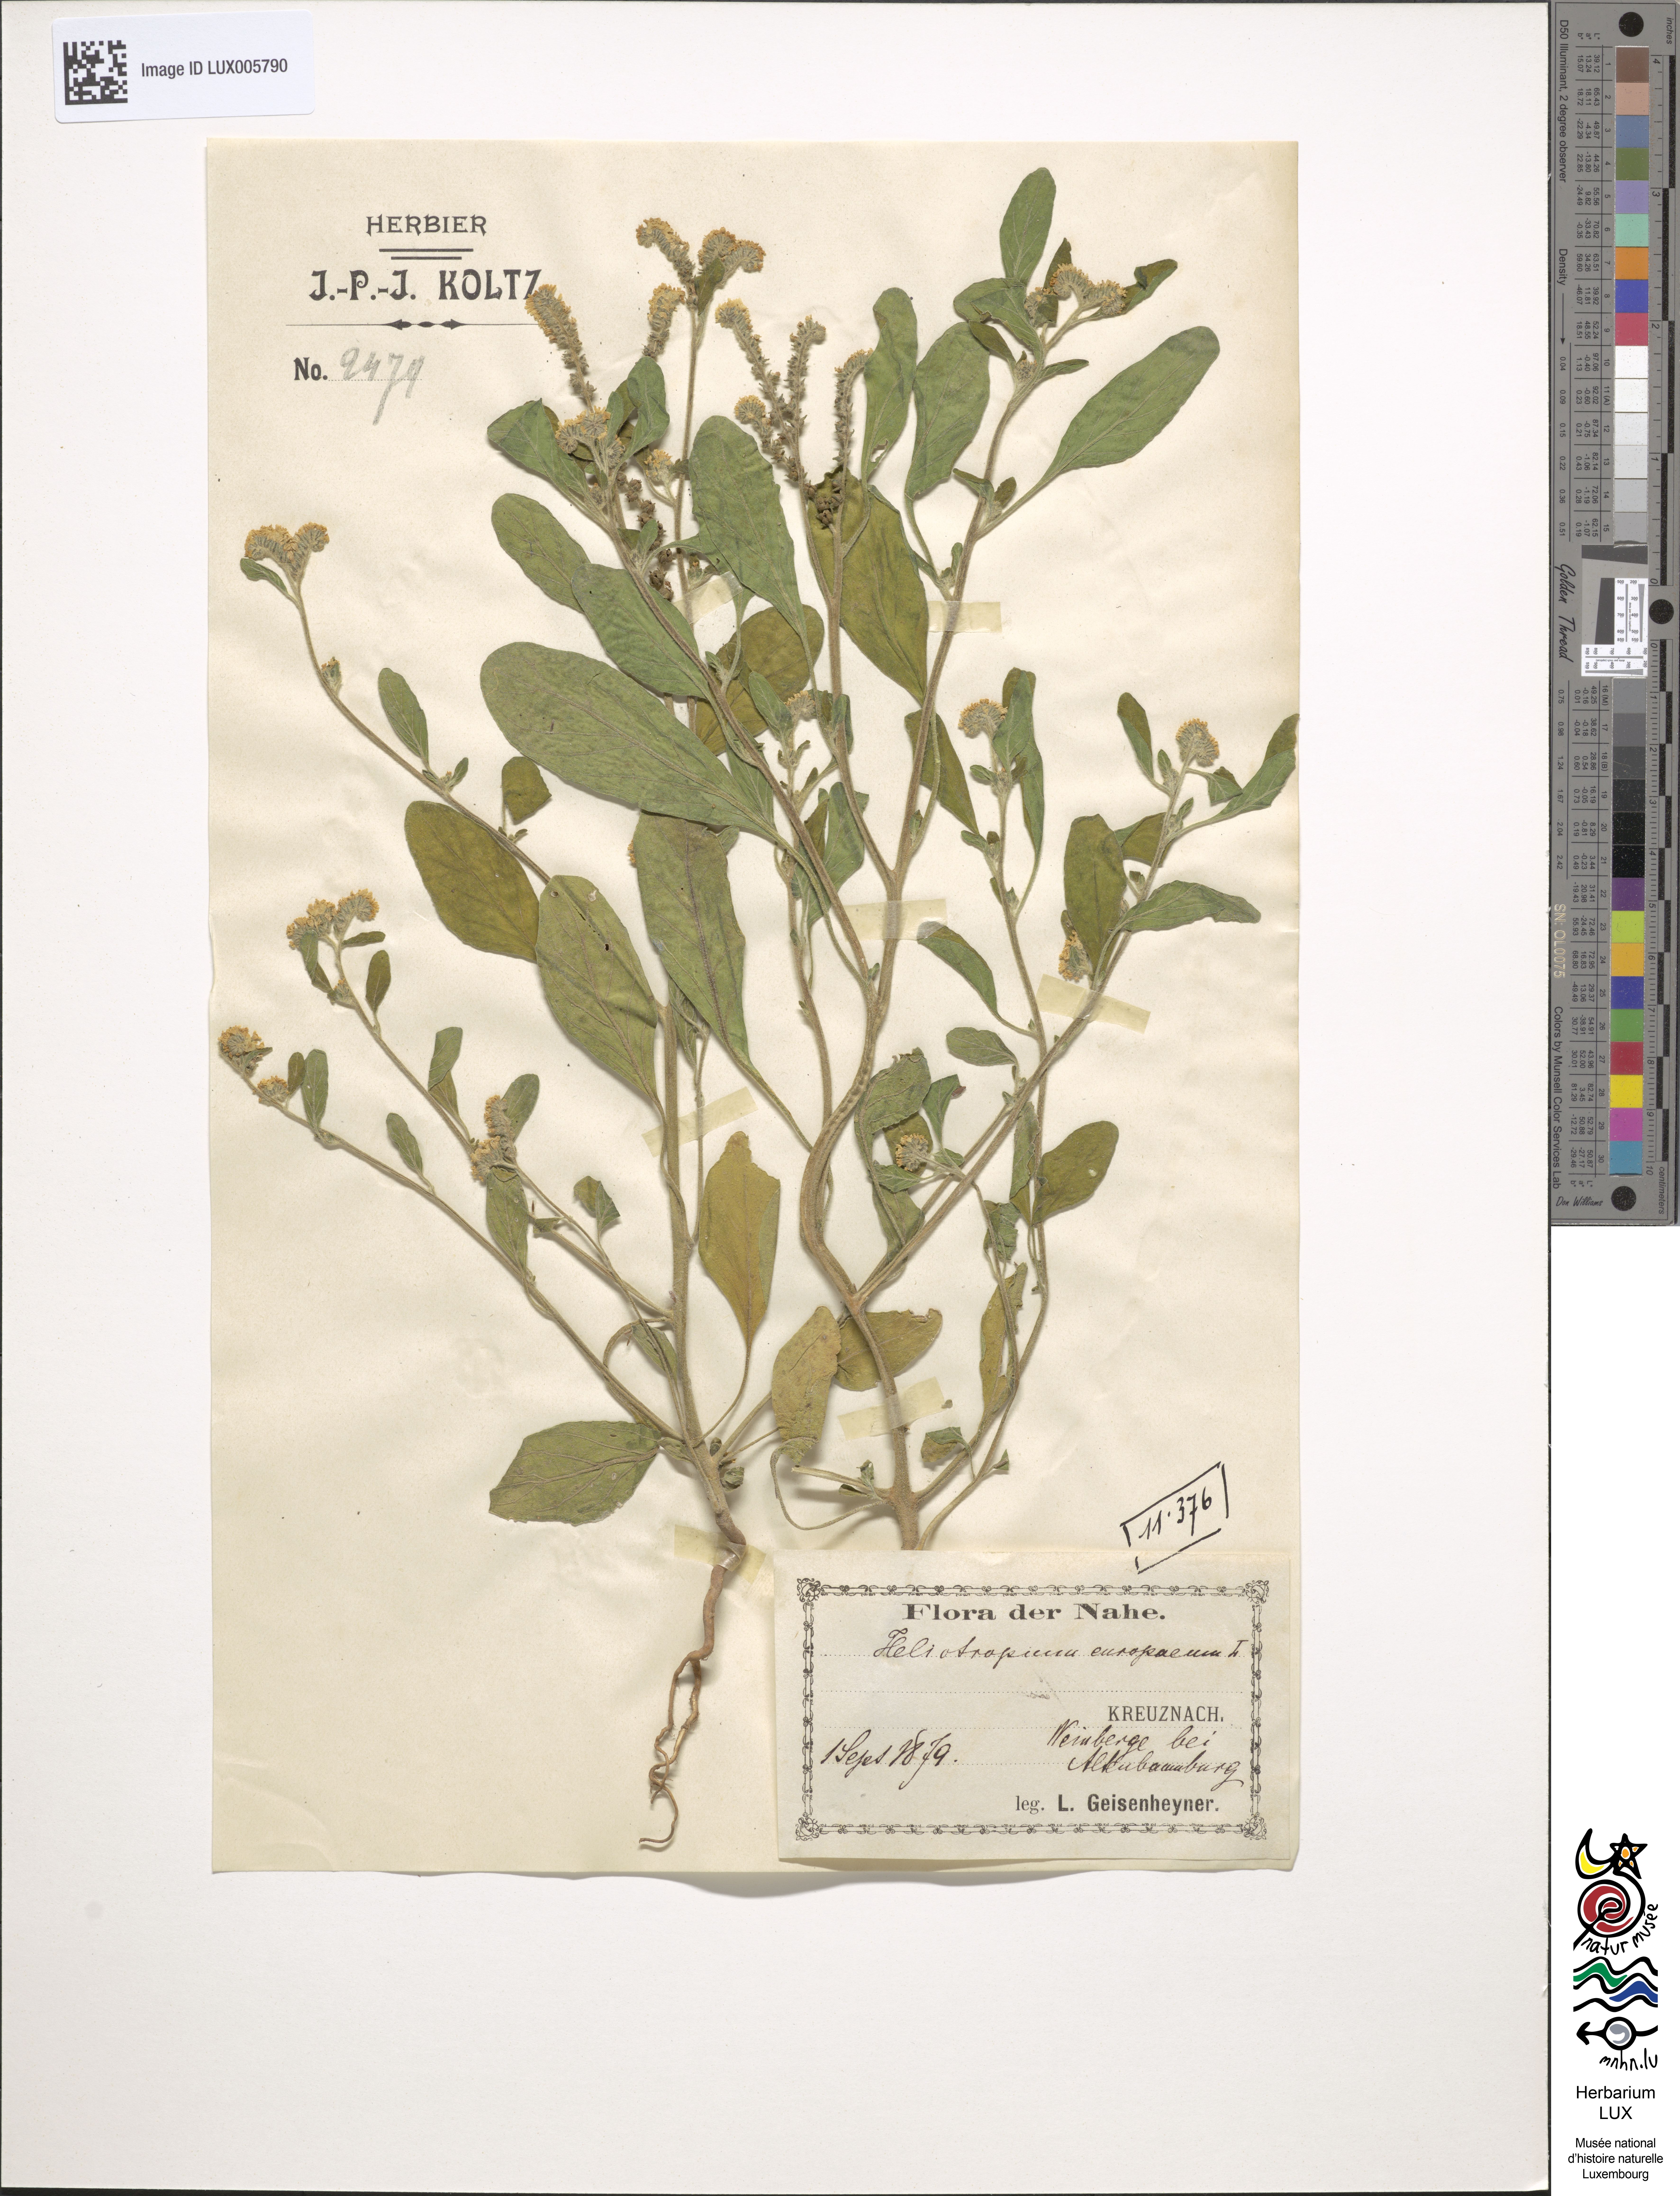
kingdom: Plantae
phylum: Tracheophyta
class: Magnoliopsida
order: Boraginales
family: Heliotropiaceae
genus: Heliotropium
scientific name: Heliotropium europaeum
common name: European heliotrope
